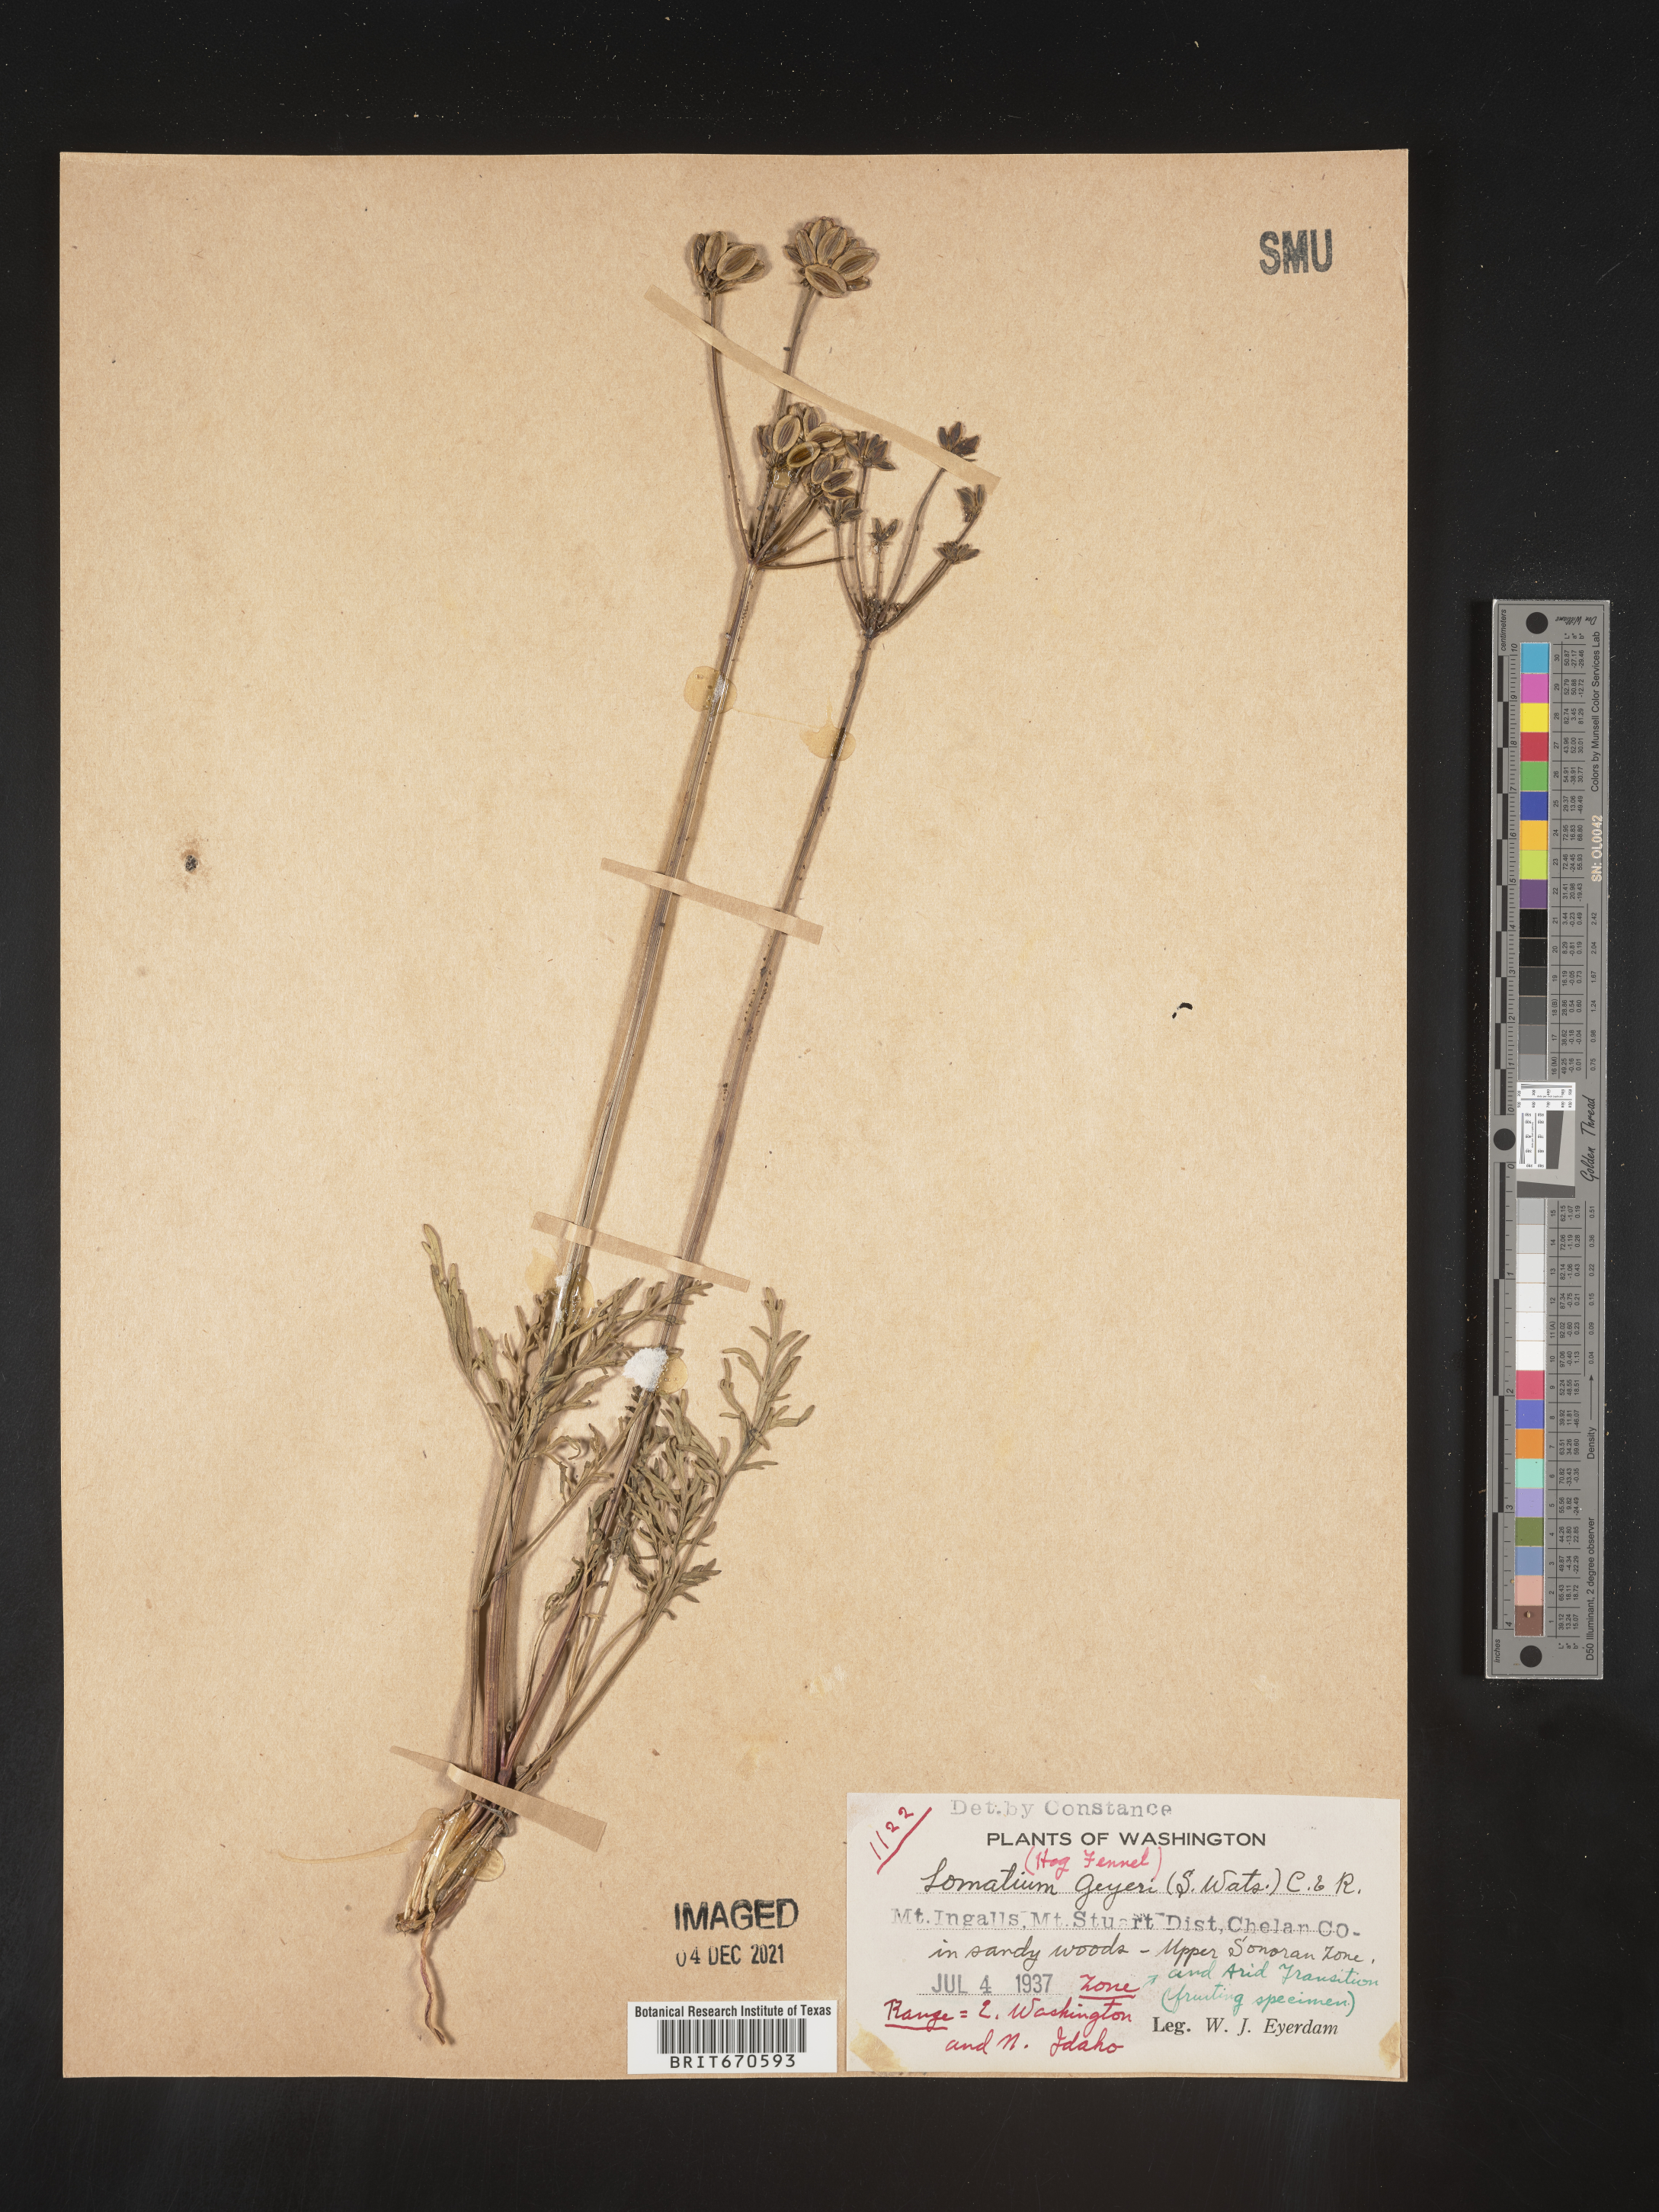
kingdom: Plantae
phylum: Tracheophyta
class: Magnoliopsida
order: Apiales
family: Apiaceae
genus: Lomatium
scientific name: Lomatium geyeri
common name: Geyer's biscuitroot
